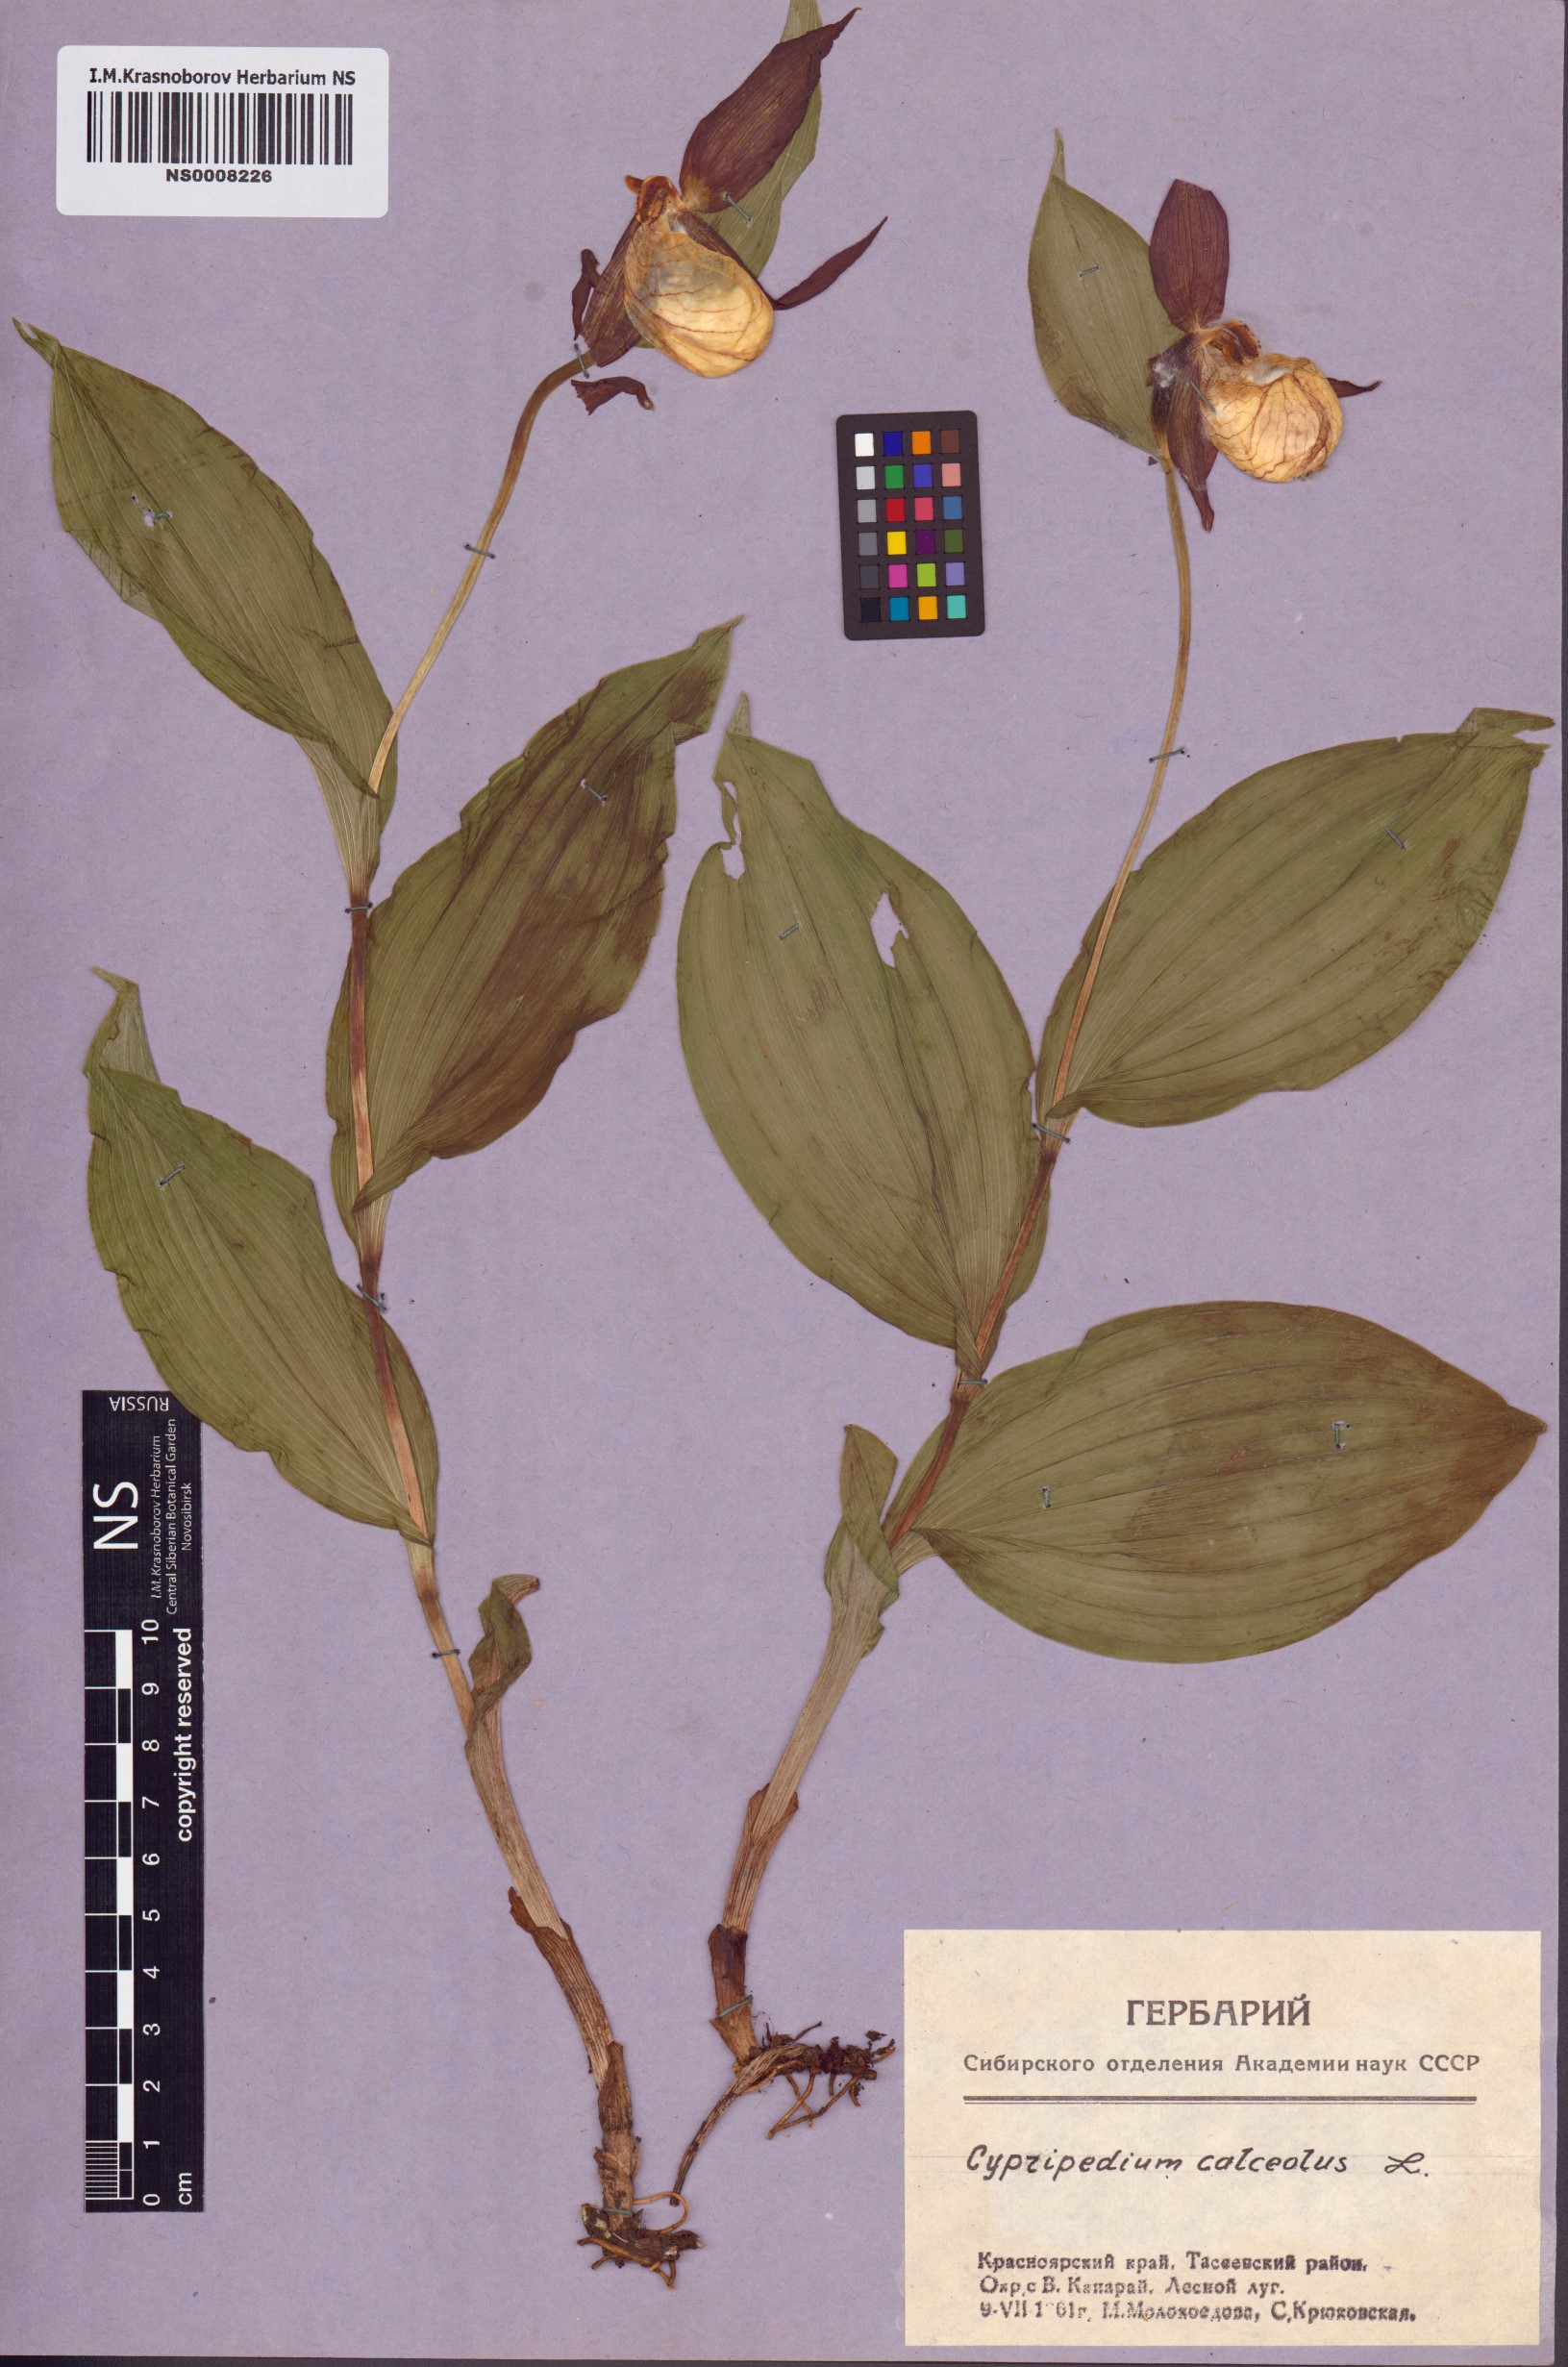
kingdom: Plantae
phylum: Tracheophyta
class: Liliopsida
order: Asparagales
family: Orchidaceae
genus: Cypripedium
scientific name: Cypripedium calceolus
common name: Lady's-slipper
